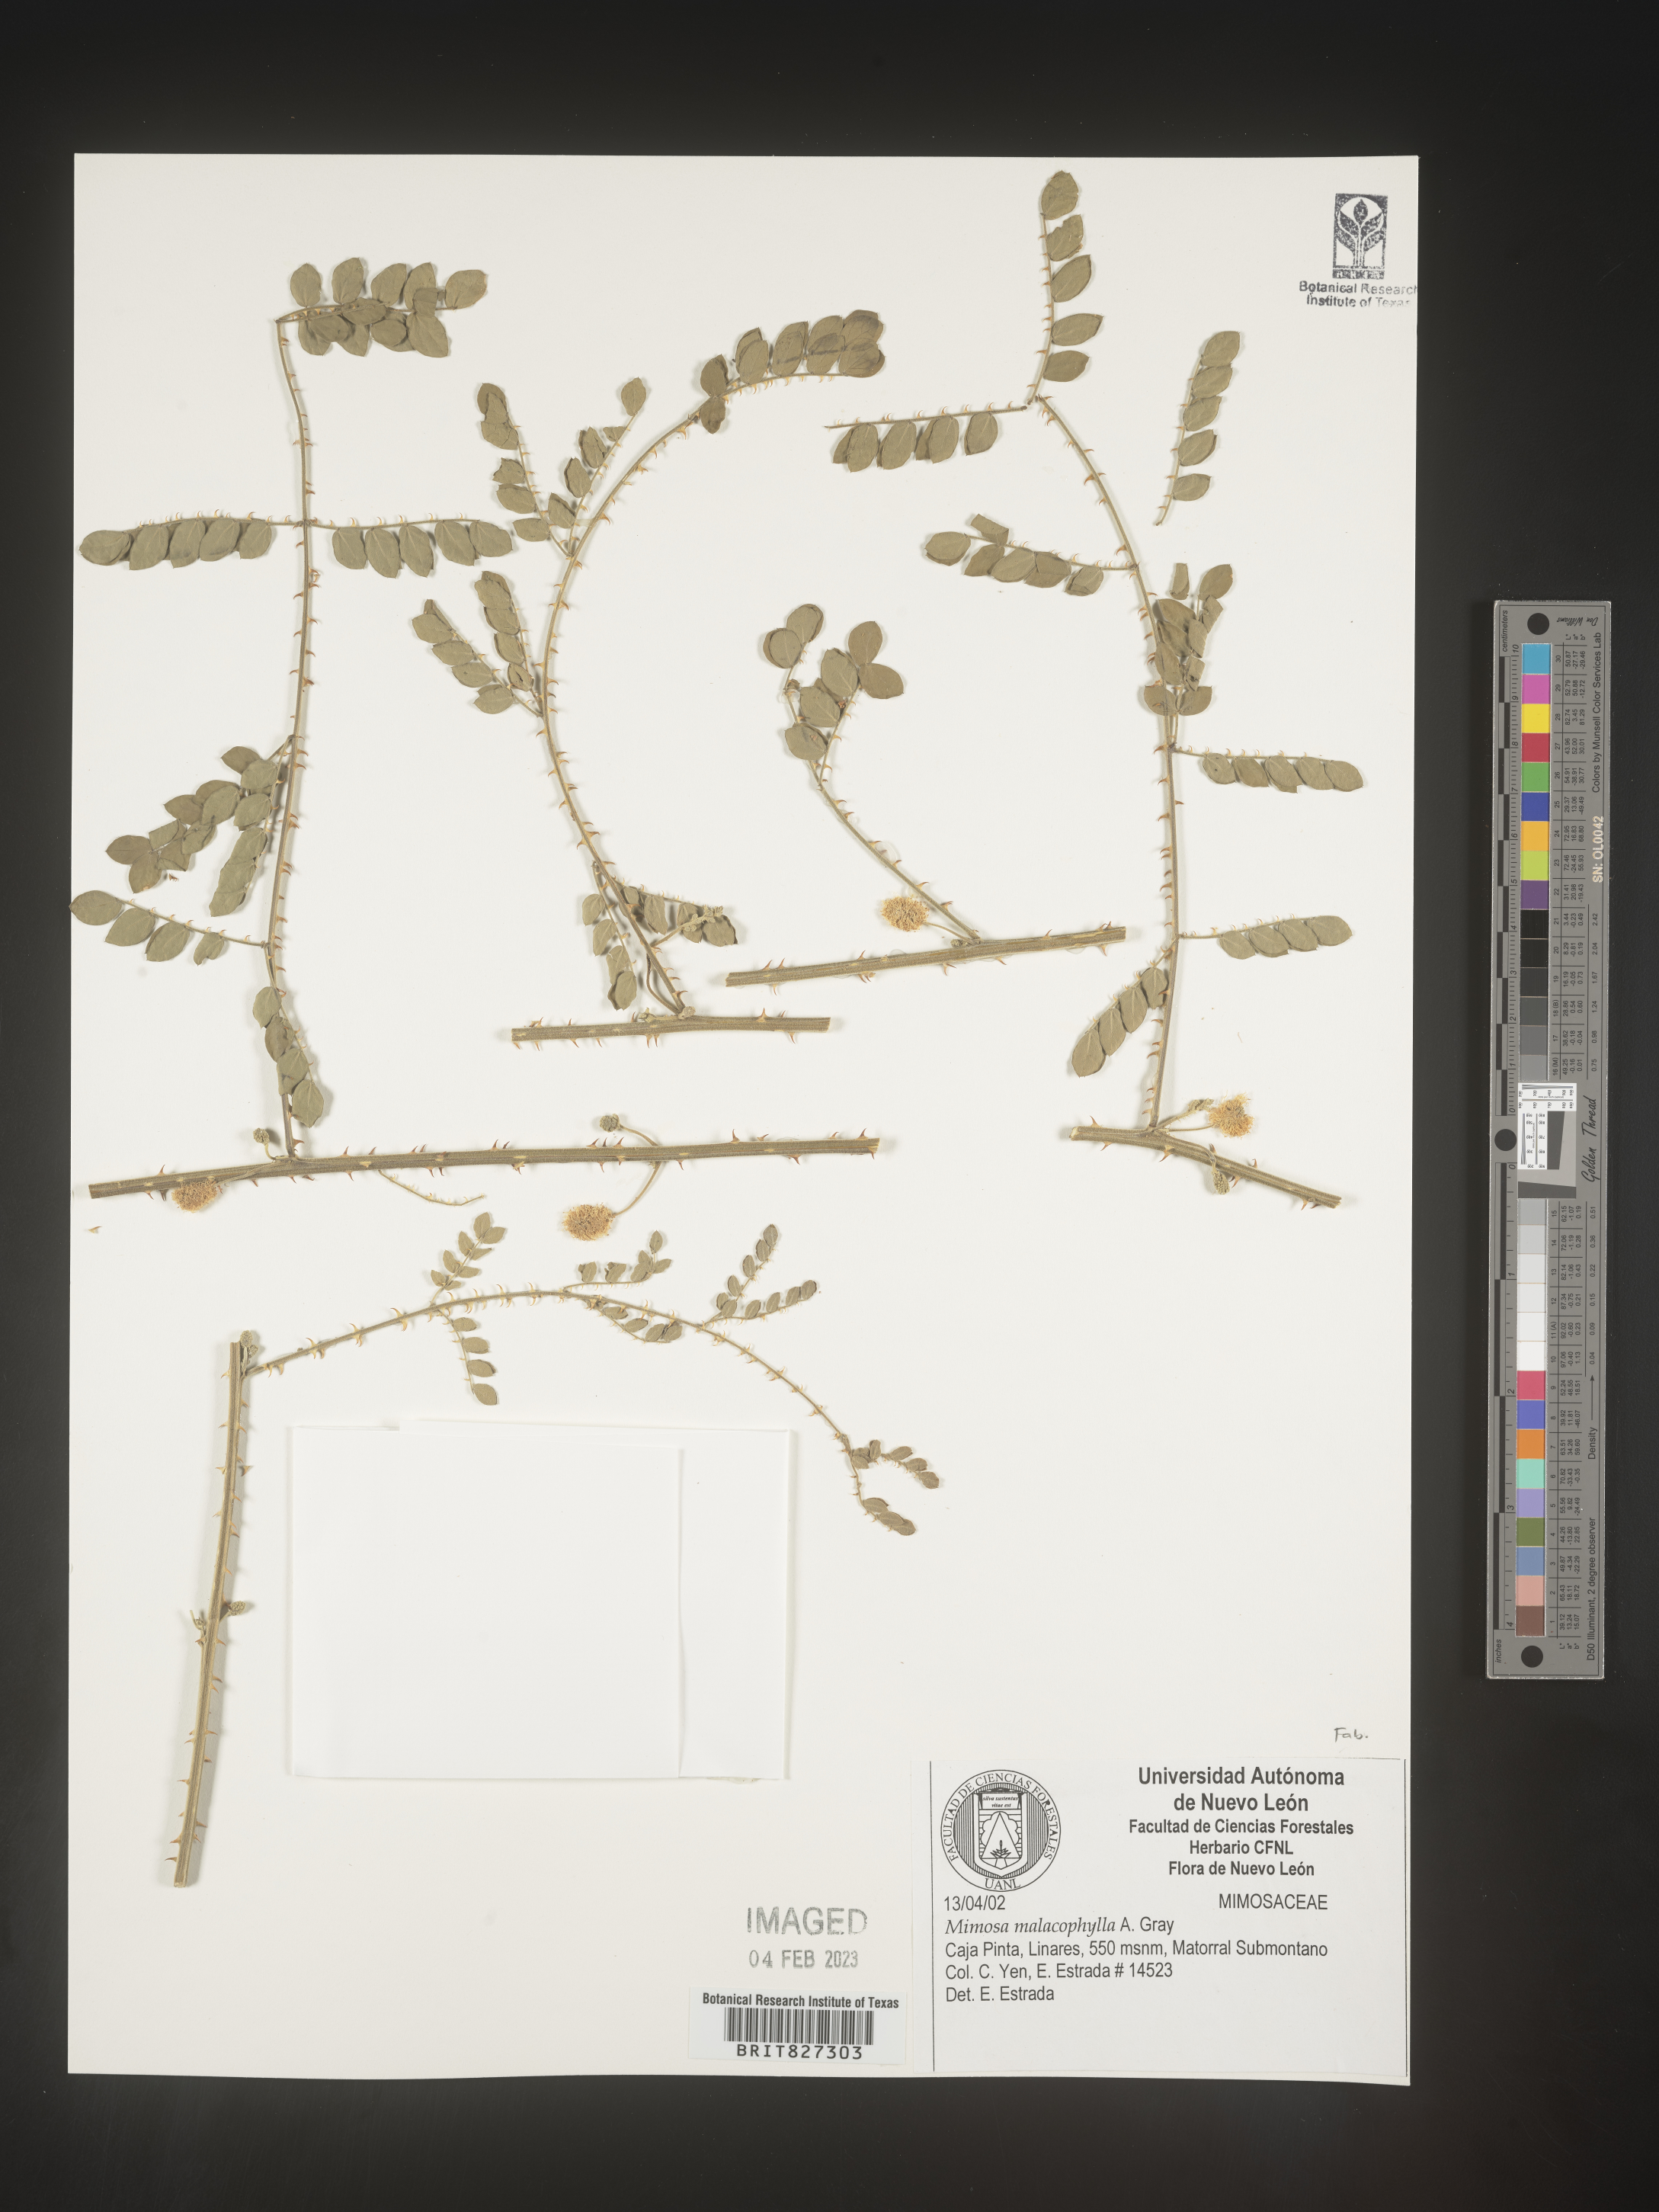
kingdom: Plantae
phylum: Tracheophyta
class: Magnoliopsida
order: Fabales
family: Fabaceae
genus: Mimosa
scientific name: Mimosa
